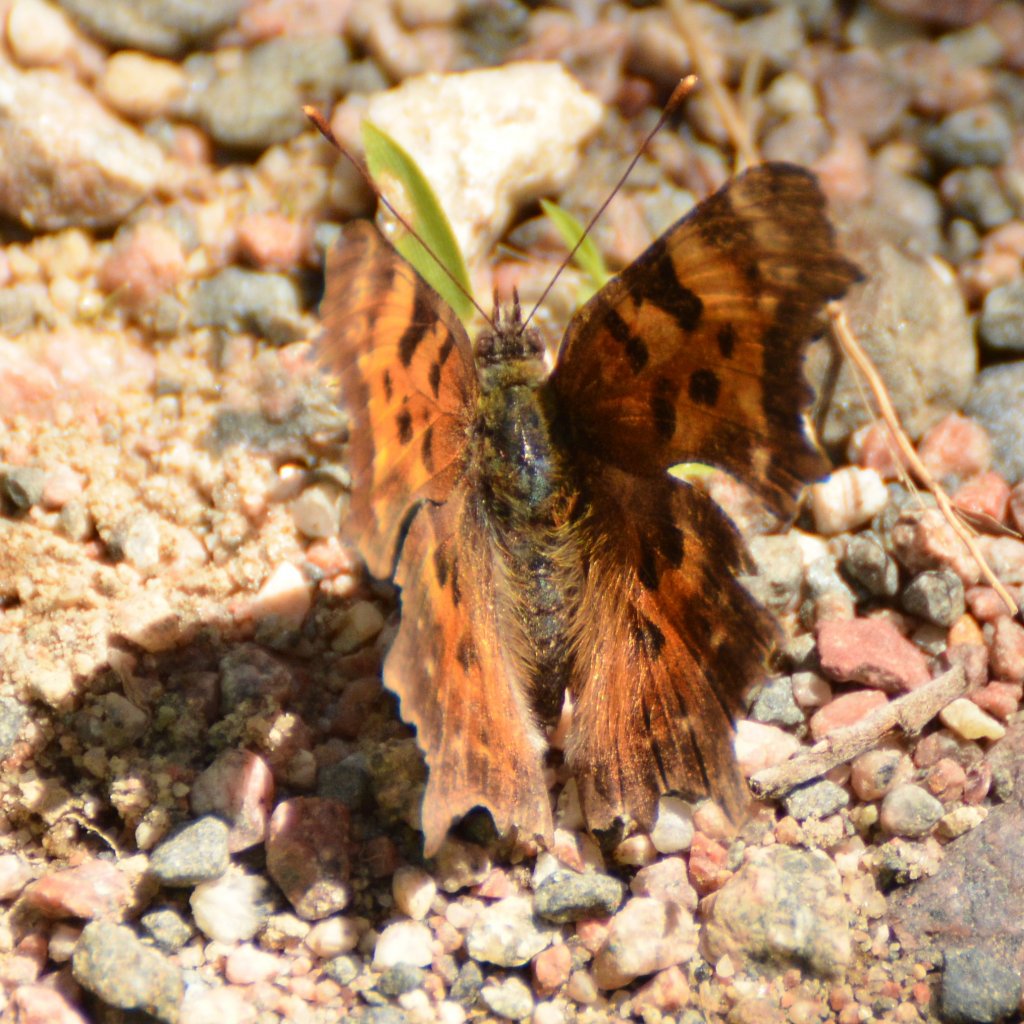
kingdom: Animalia
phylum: Arthropoda
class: Insecta
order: Lepidoptera
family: Nymphalidae
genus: Polygonia
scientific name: Polygonia faunus
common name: Green Comma
